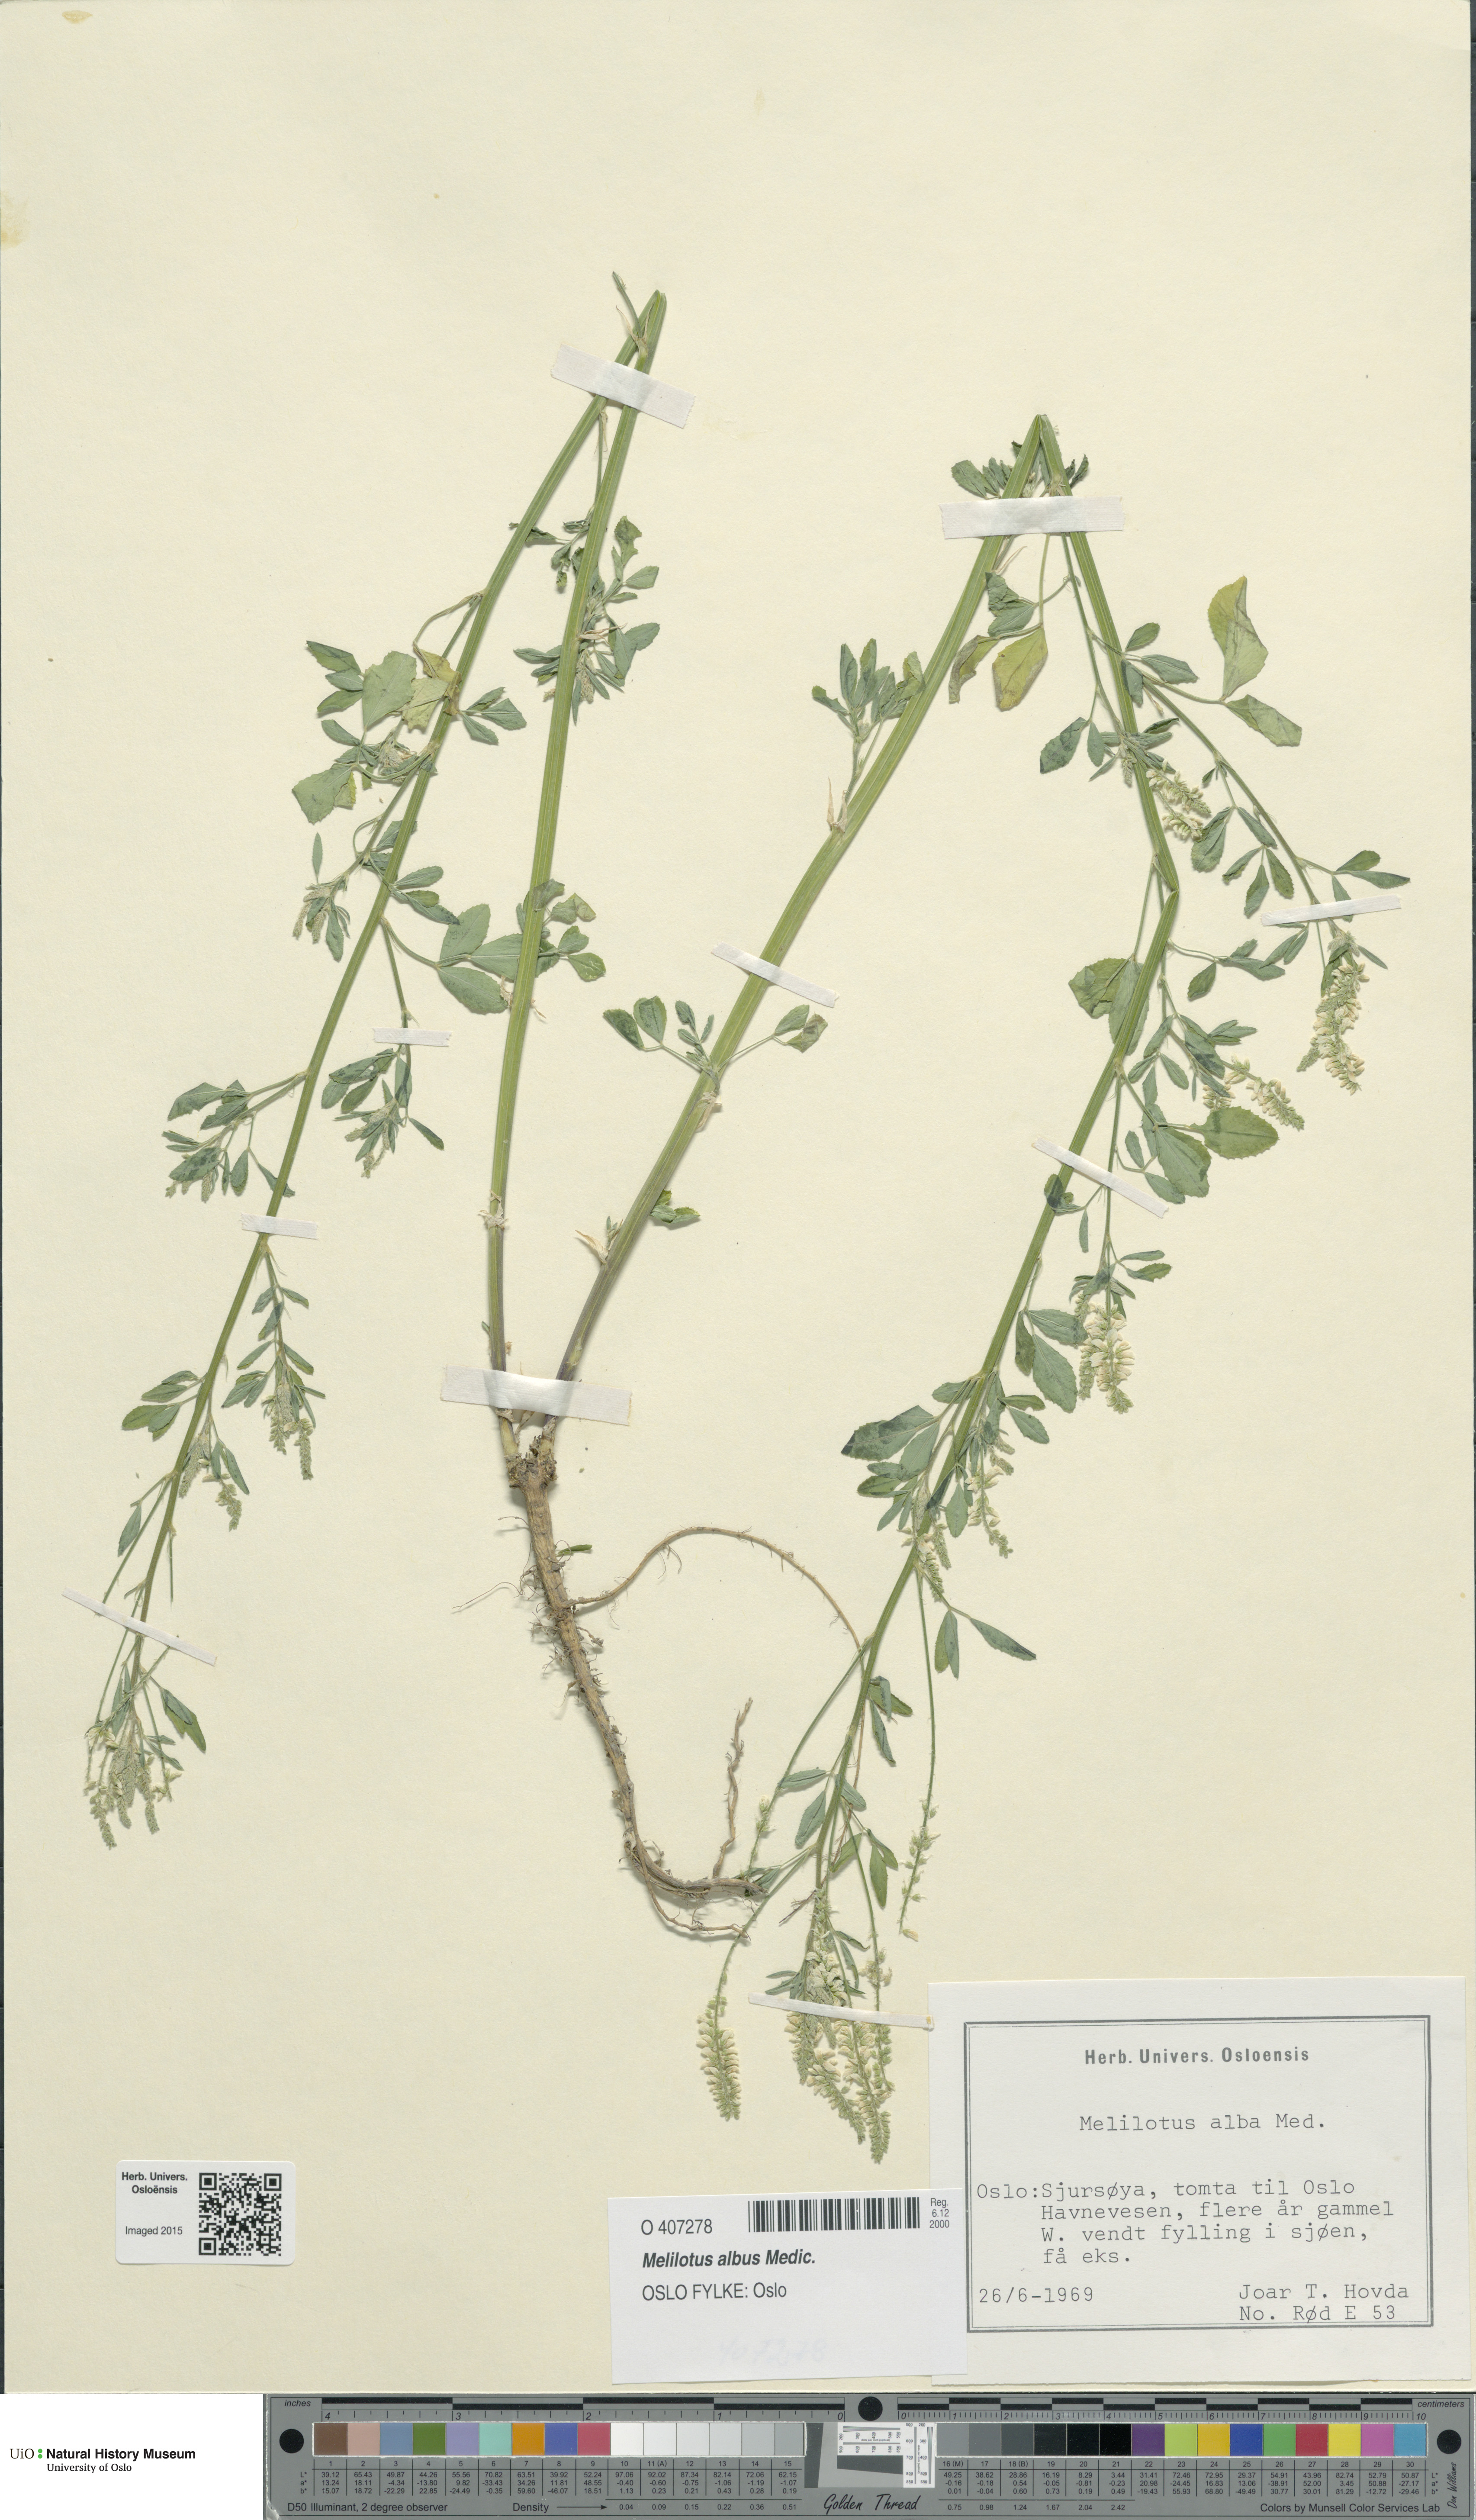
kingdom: Plantae
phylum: Tracheophyta
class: Magnoliopsida
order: Fabales
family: Fabaceae
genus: Melilotus
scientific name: Melilotus albus
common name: White melilot
